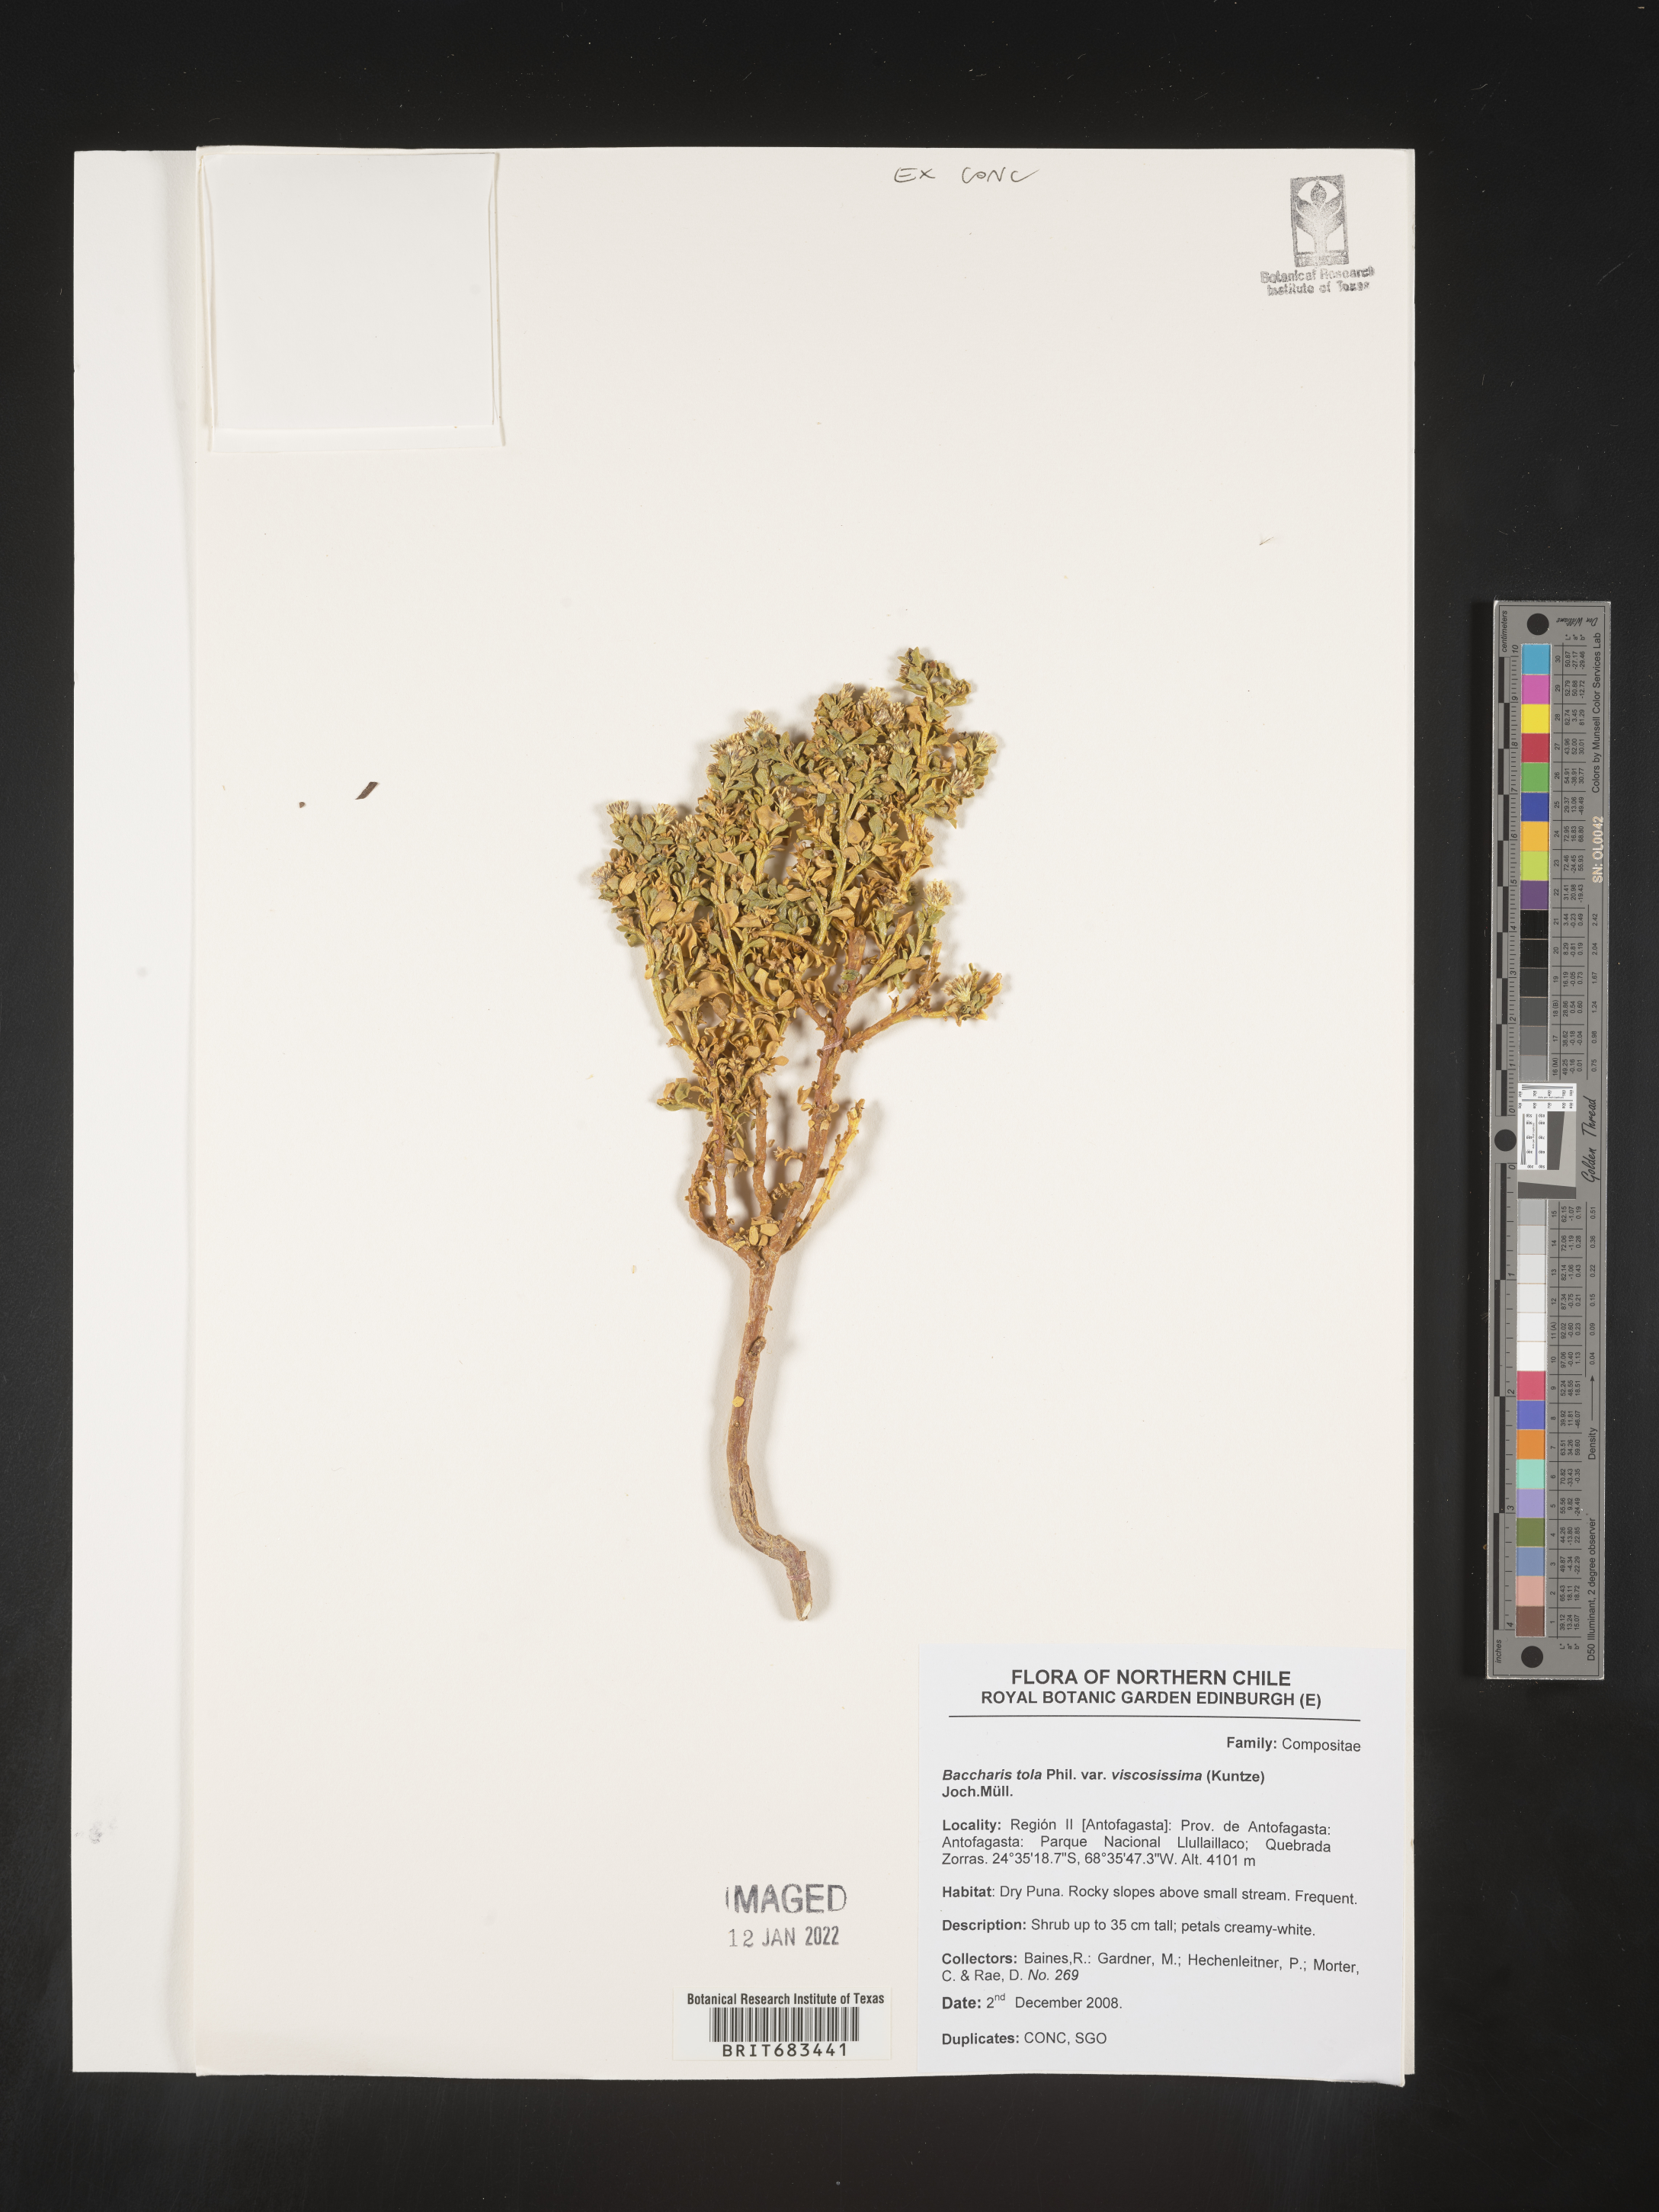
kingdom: Plantae
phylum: Tracheophyta
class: Magnoliopsida
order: Asterales
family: Asteraceae
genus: Baccharis
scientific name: Baccharis
